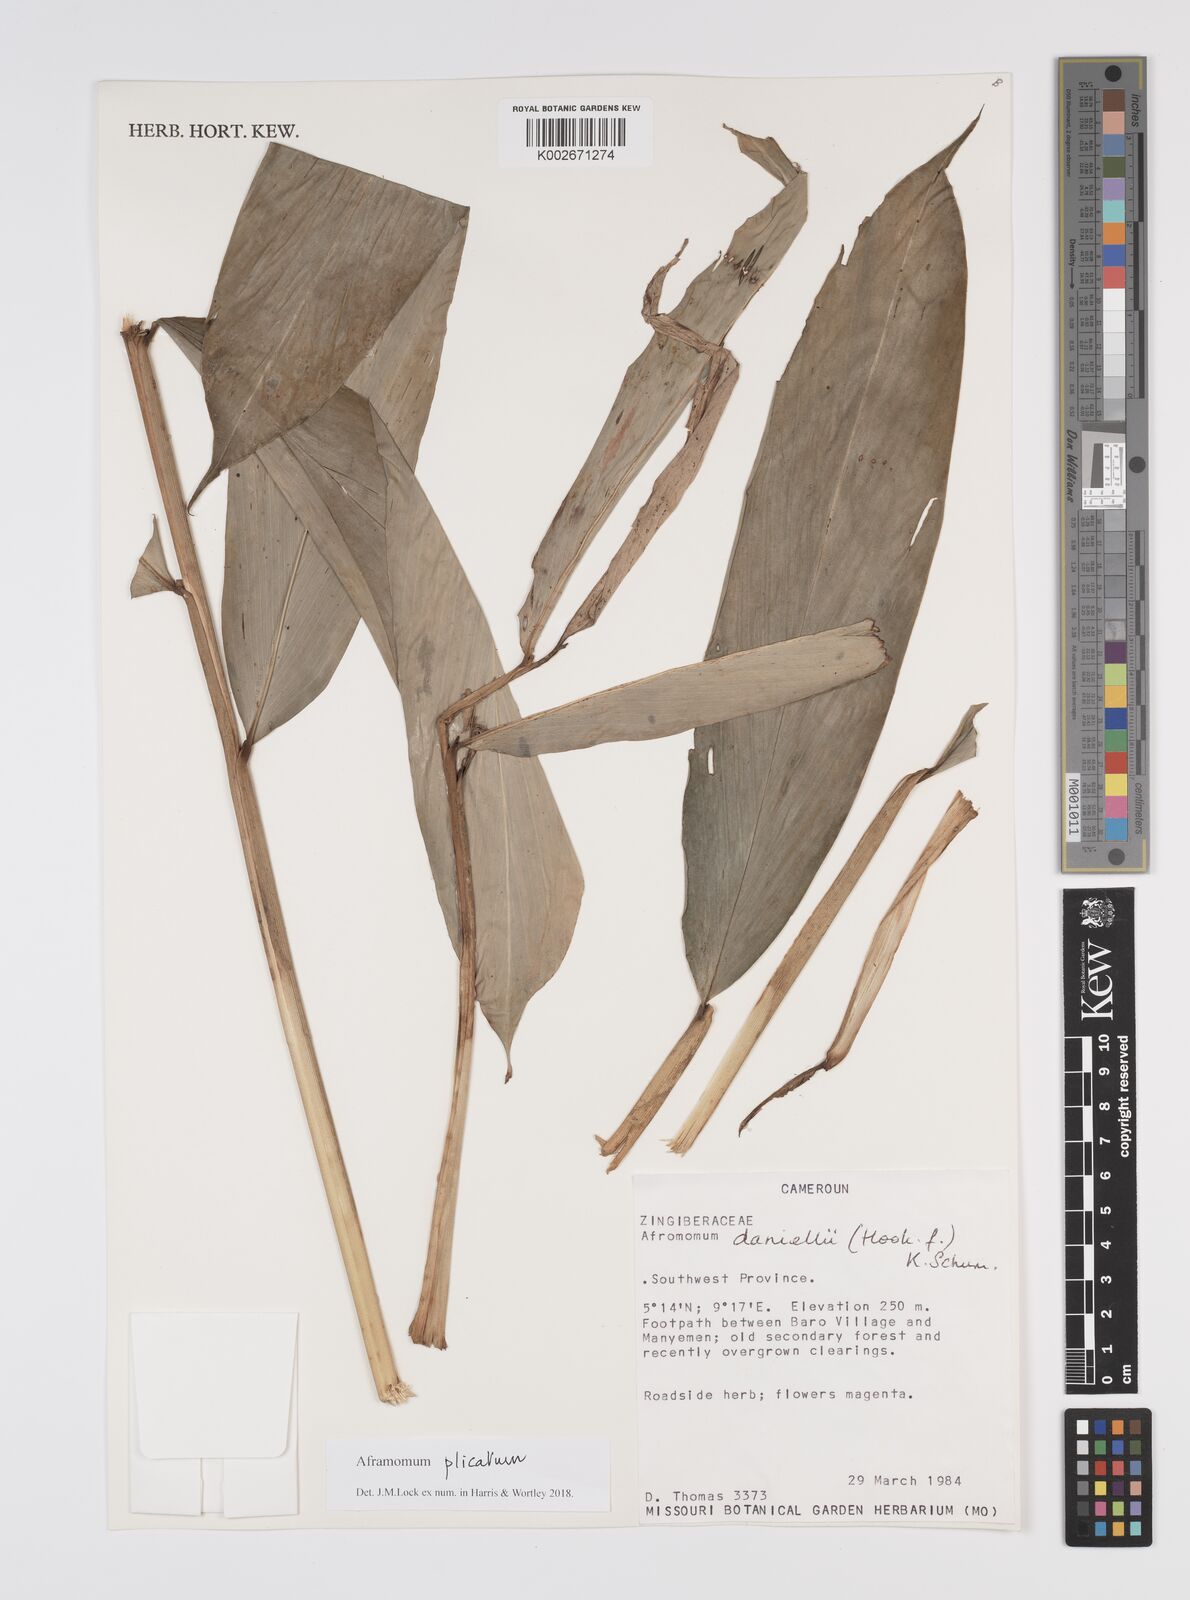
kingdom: Plantae
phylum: Tracheophyta
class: Liliopsida
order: Zingiberales
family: Zingiberaceae
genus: Aframomum
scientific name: Aframomum plicatum
